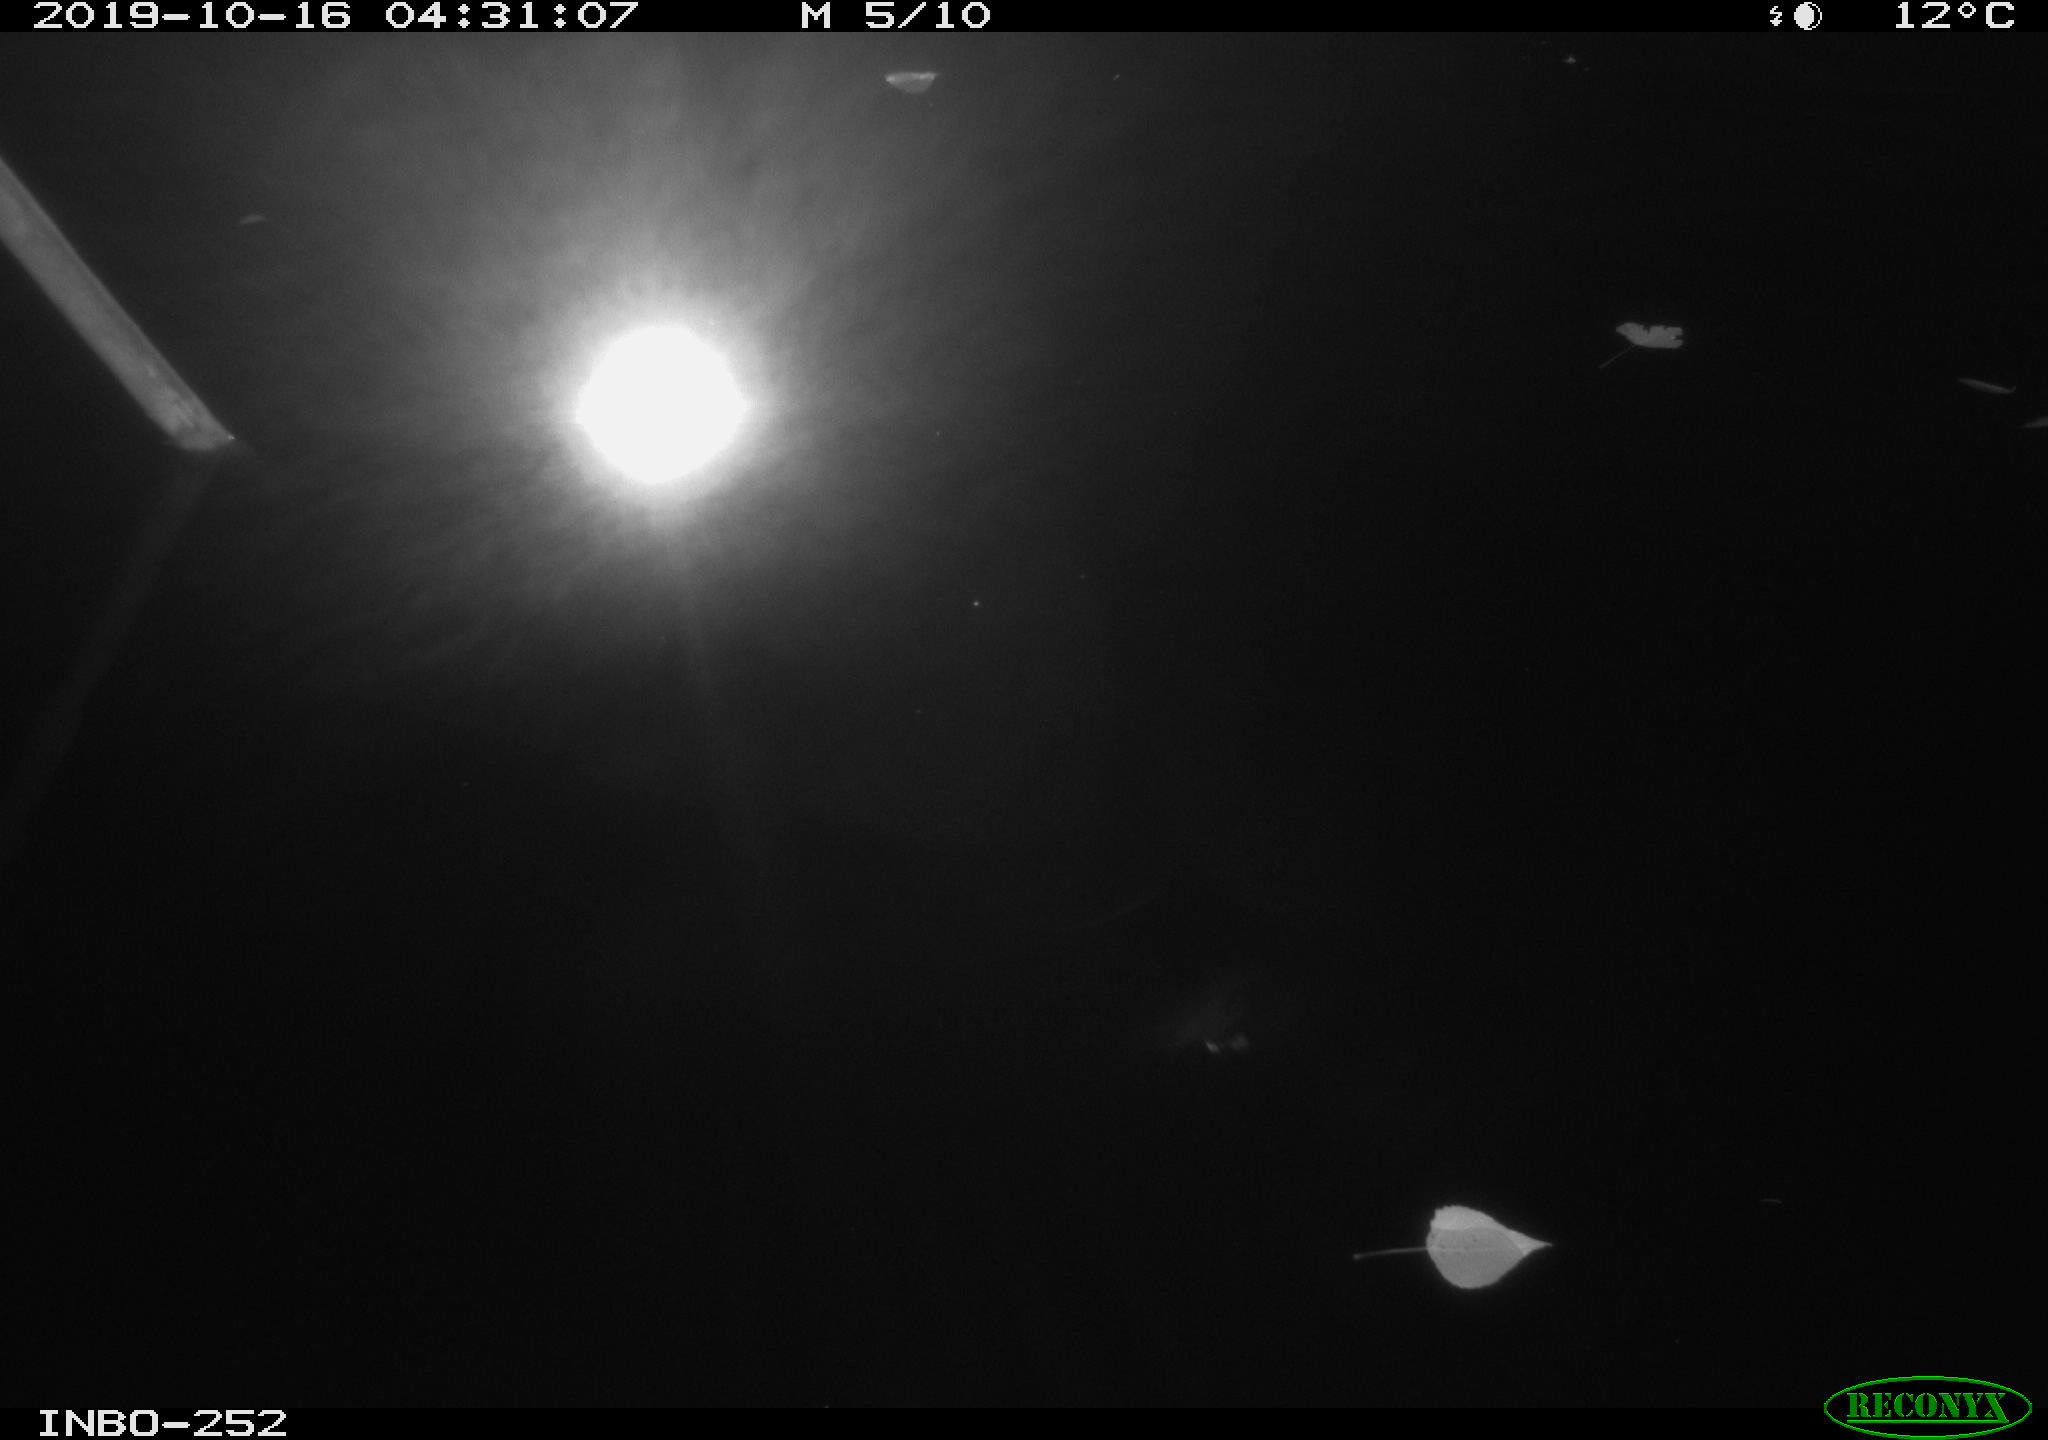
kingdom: Animalia
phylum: Chordata
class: Aves
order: Anseriformes
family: Anatidae
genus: Anas
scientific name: Anas platyrhynchos
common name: Mallard
